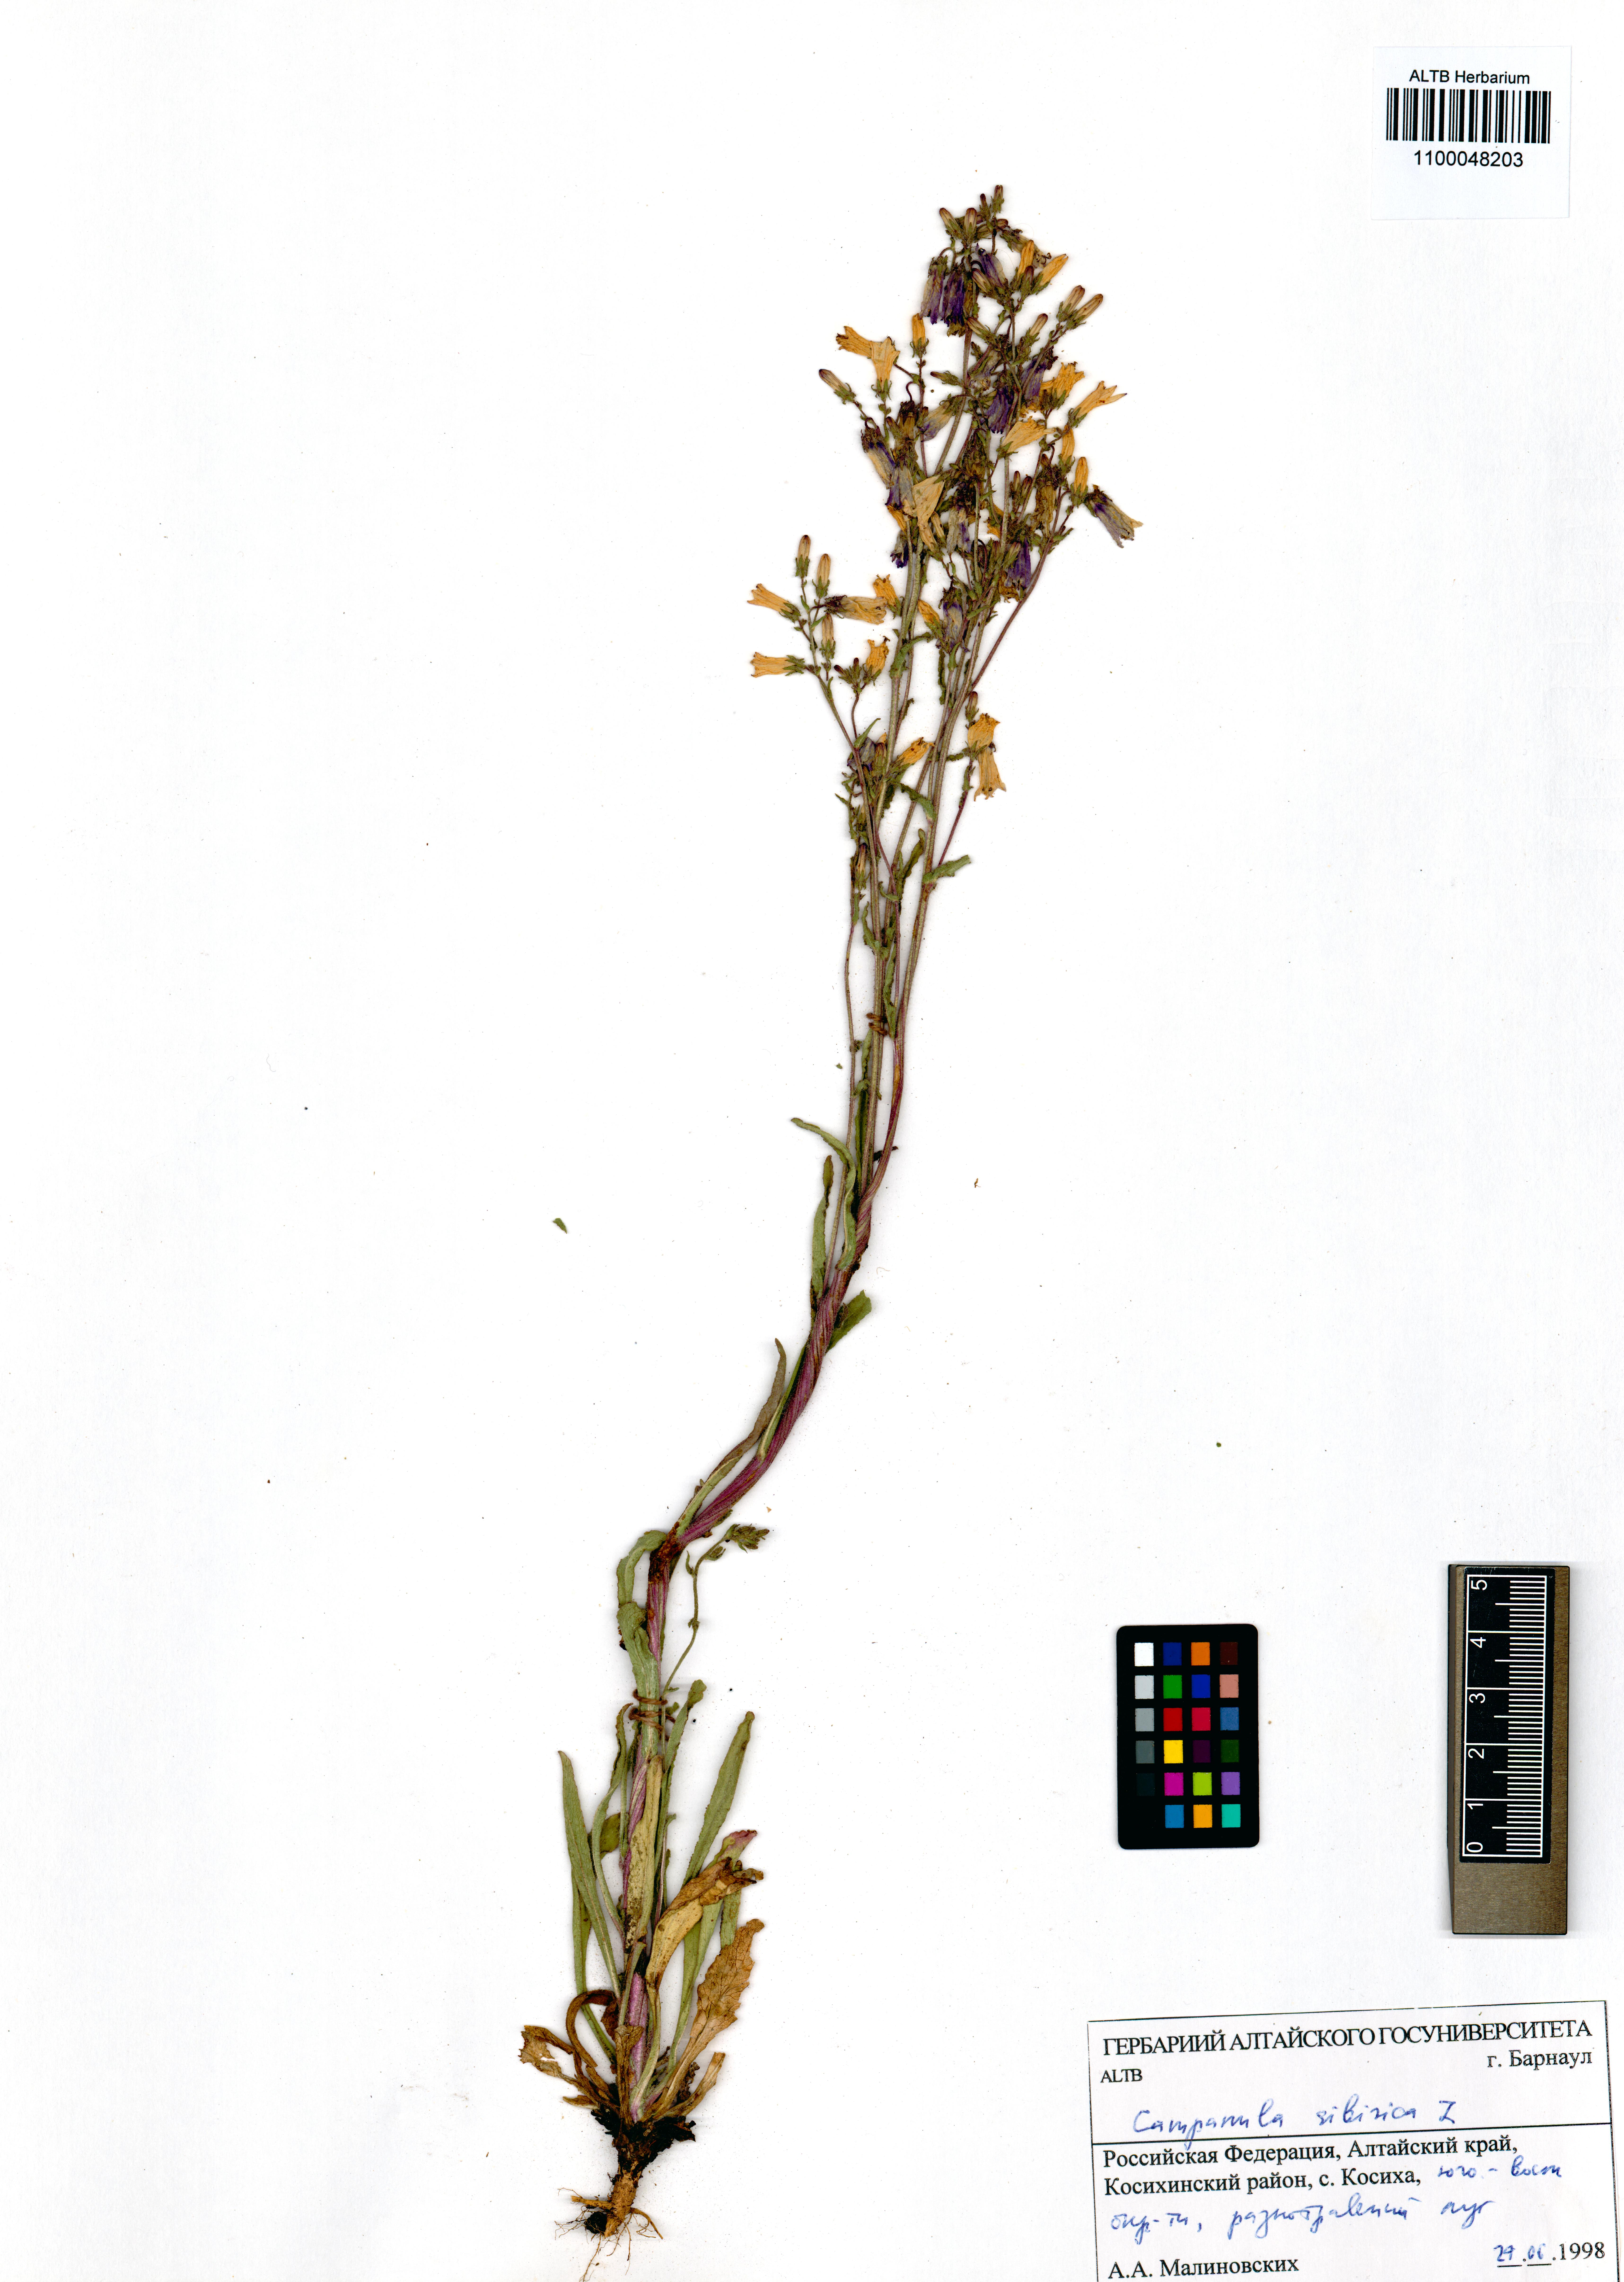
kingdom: Plantae
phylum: Tracheophyta
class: Magnoliopsida
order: Asterales
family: Campanulaceae
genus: Campanula
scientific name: Campanula sibirica
